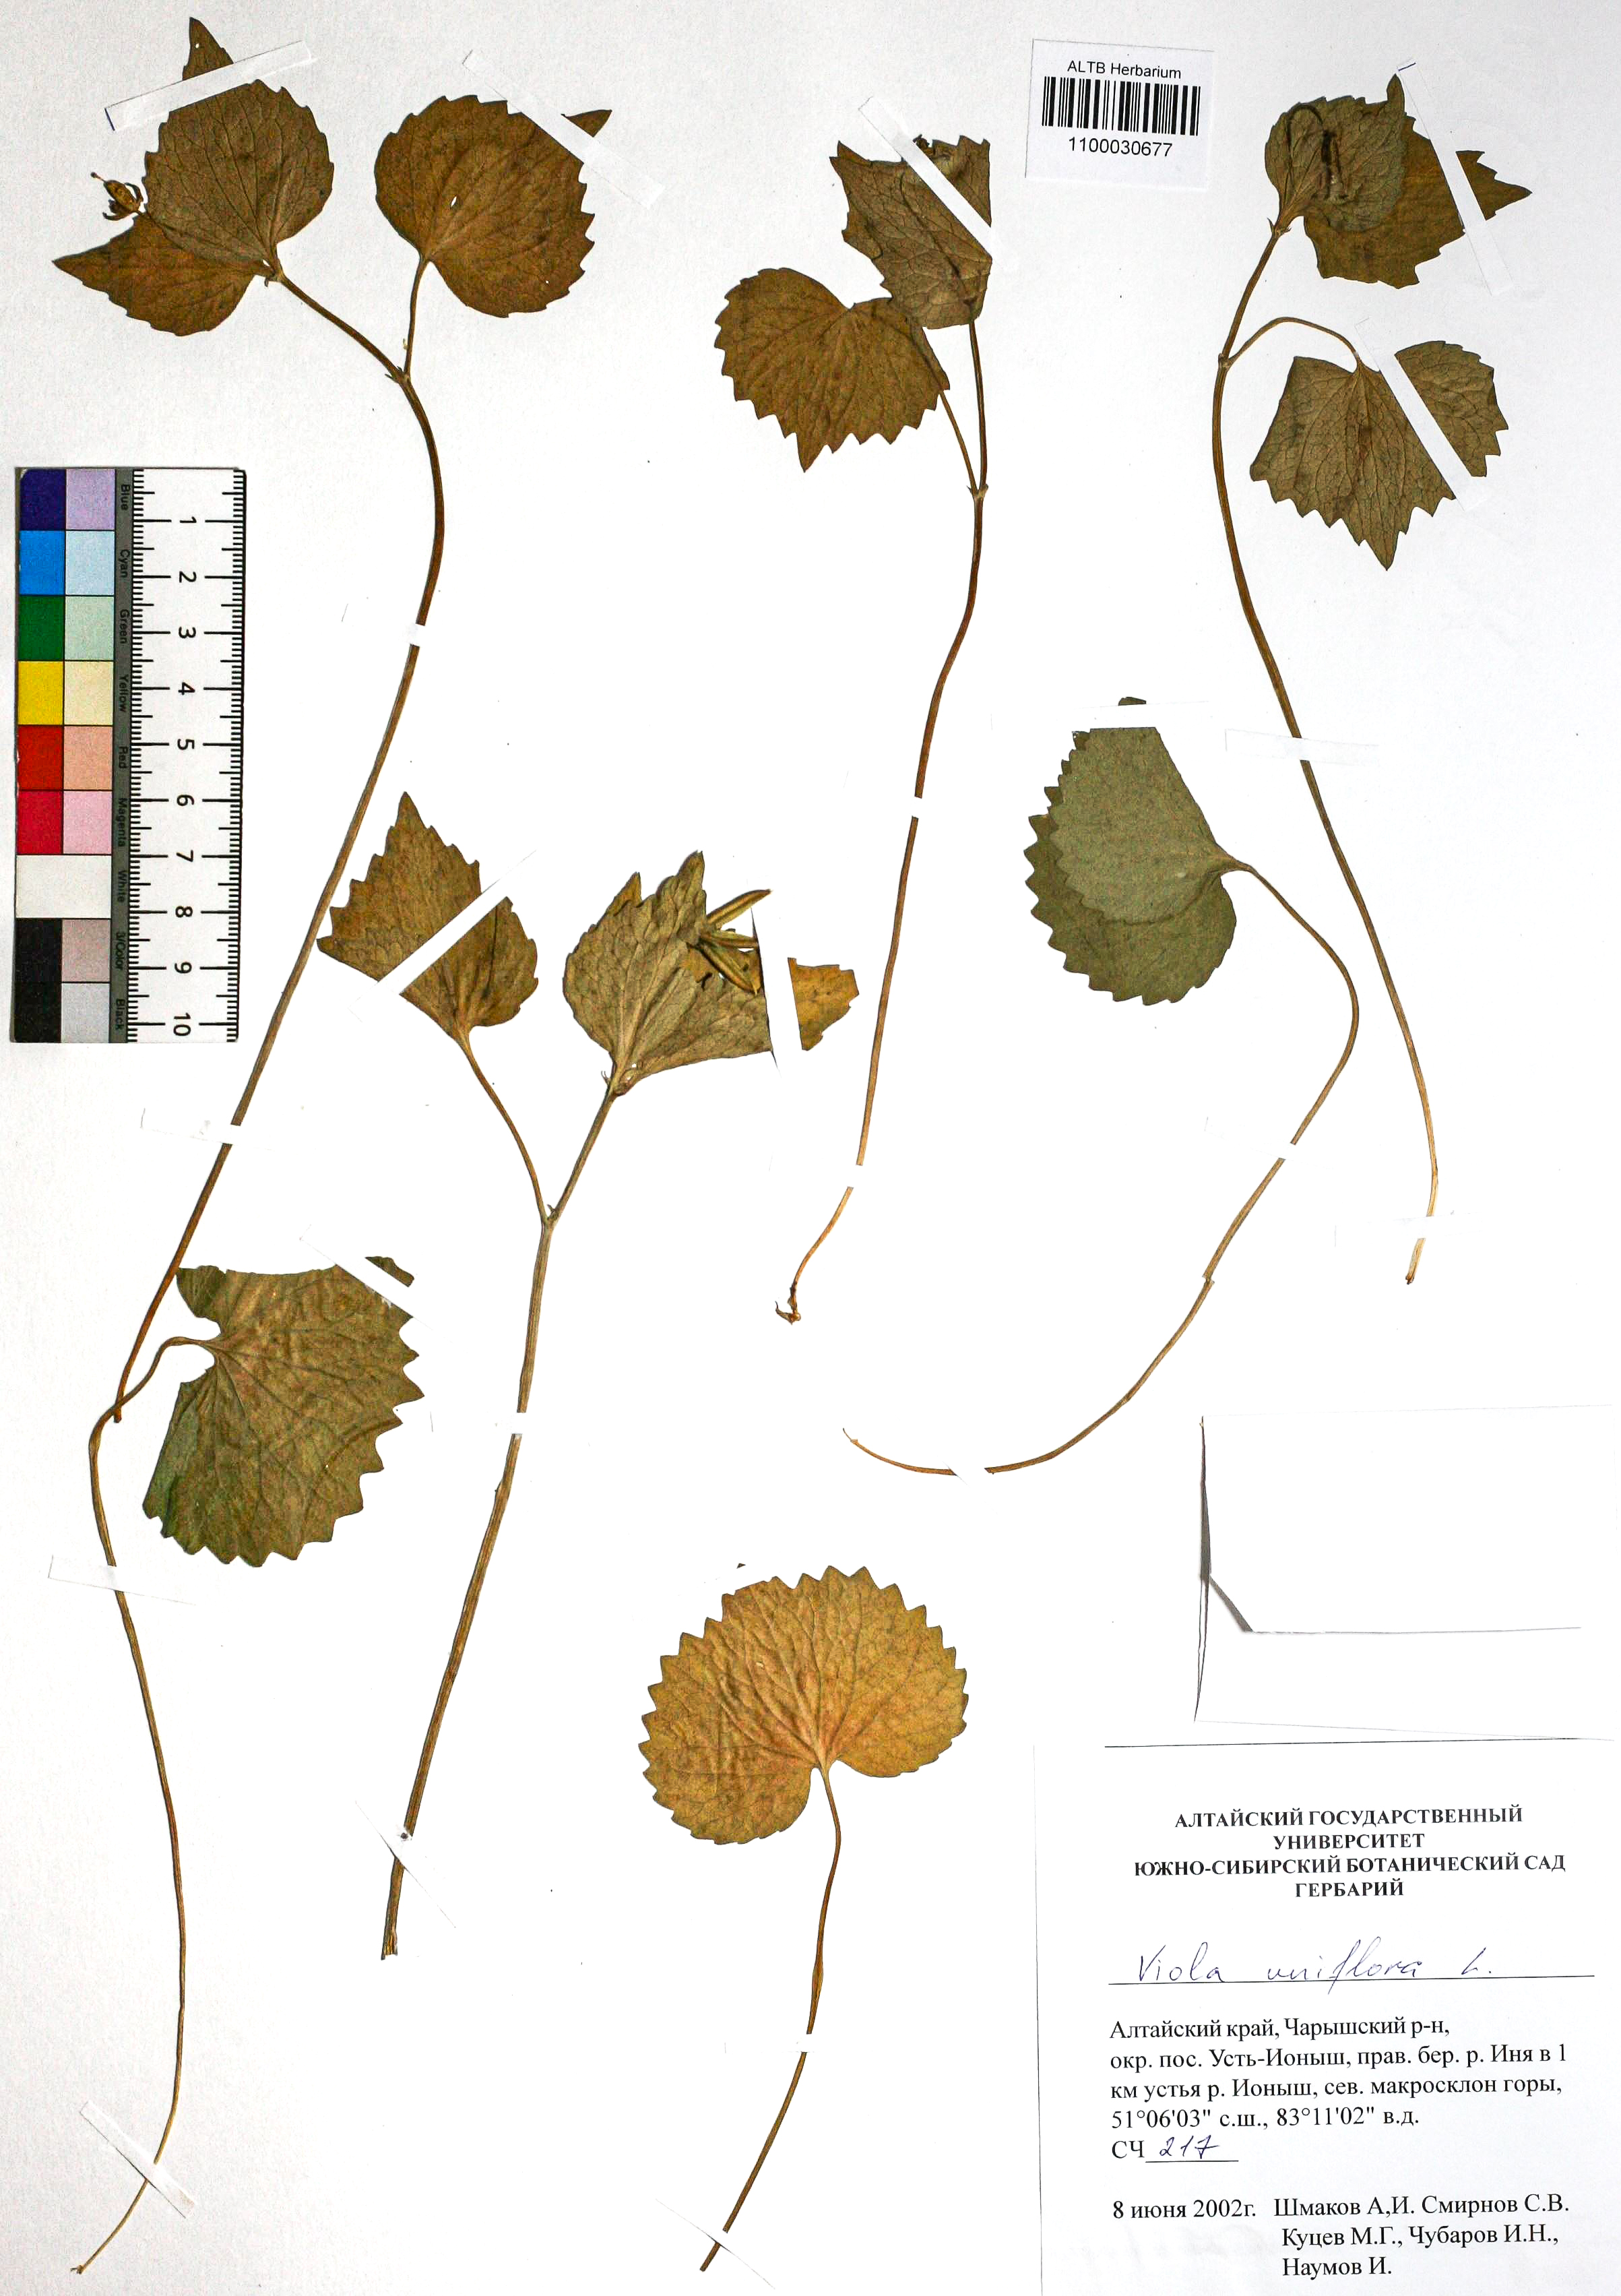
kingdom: Plantae
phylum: Tracheophyta
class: Magnoliopsida
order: Malpighiales
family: Violaceae
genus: Viola
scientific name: Viola uniflora
